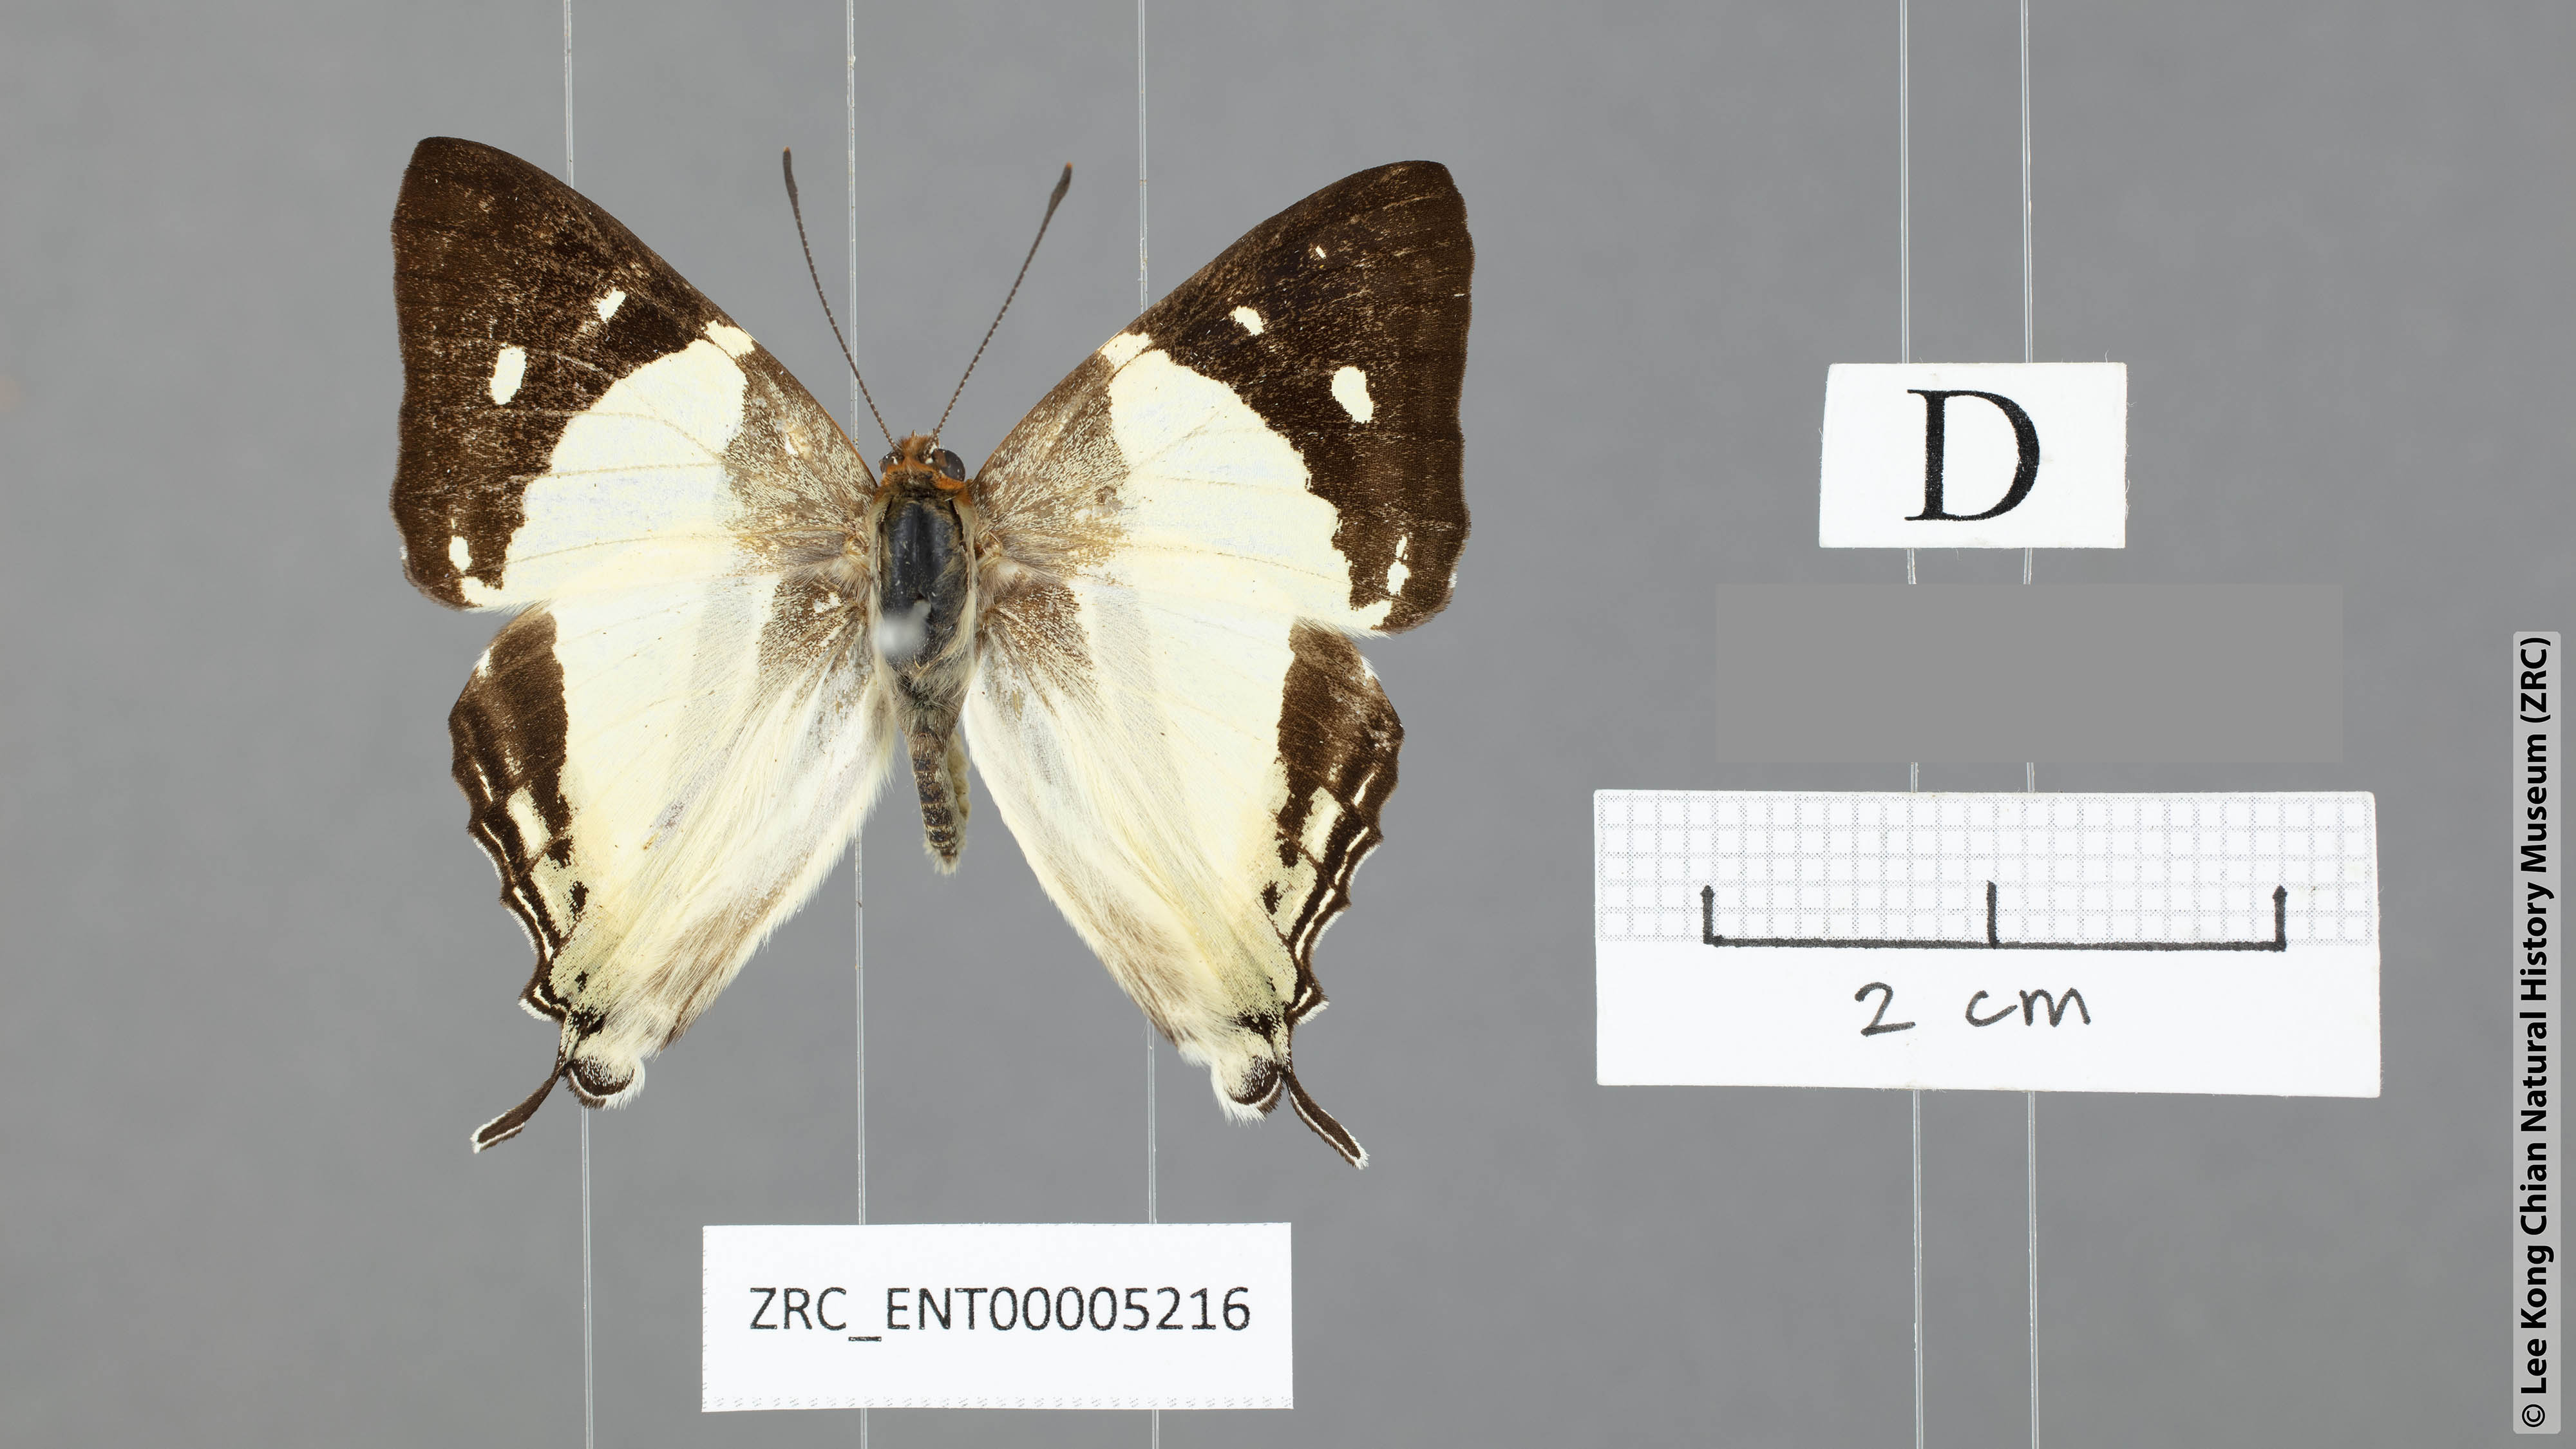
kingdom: Animalia
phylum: Arthropoda
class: Insecta
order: Lepidoptera
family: Lycaenidae
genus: Dodona
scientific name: Dodona deodata
